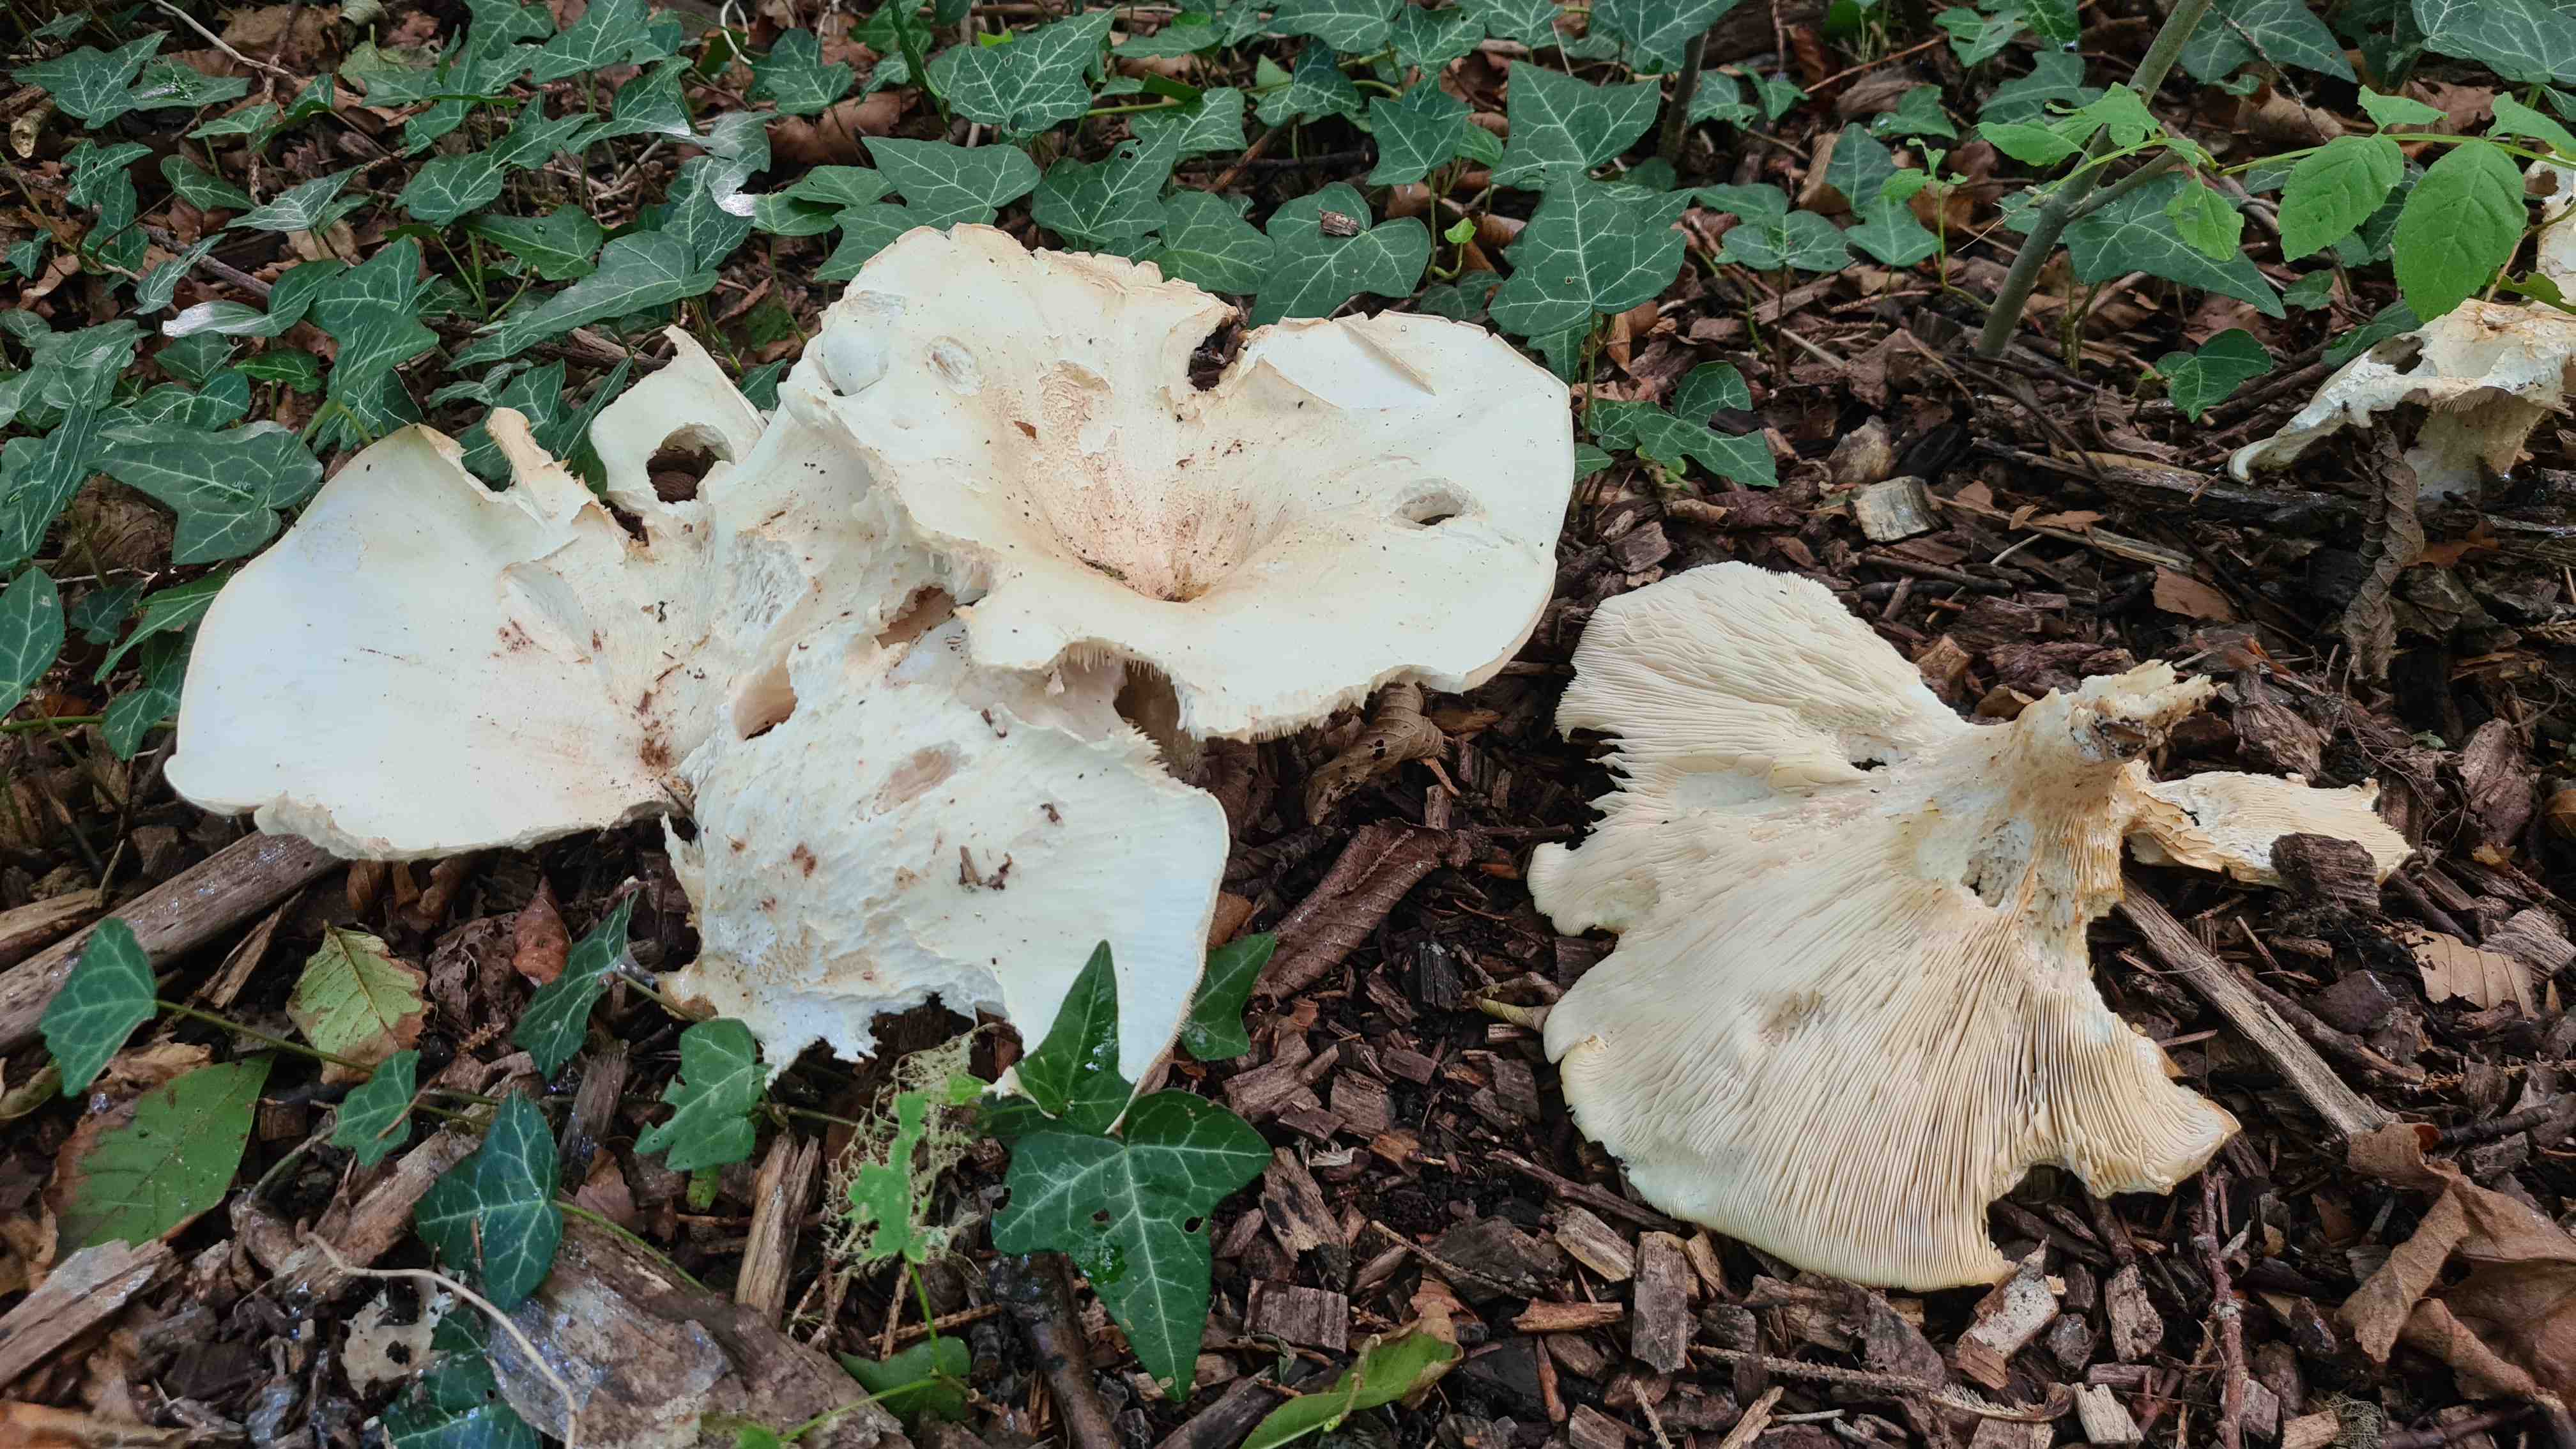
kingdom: Fungi
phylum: Basidiomycota
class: Agaricomycetes
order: Agaricales
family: Tricholomataceae
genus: Aspropaxillus
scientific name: Aspropaxillus giganteus
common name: kæmpe-tragtridderhat
